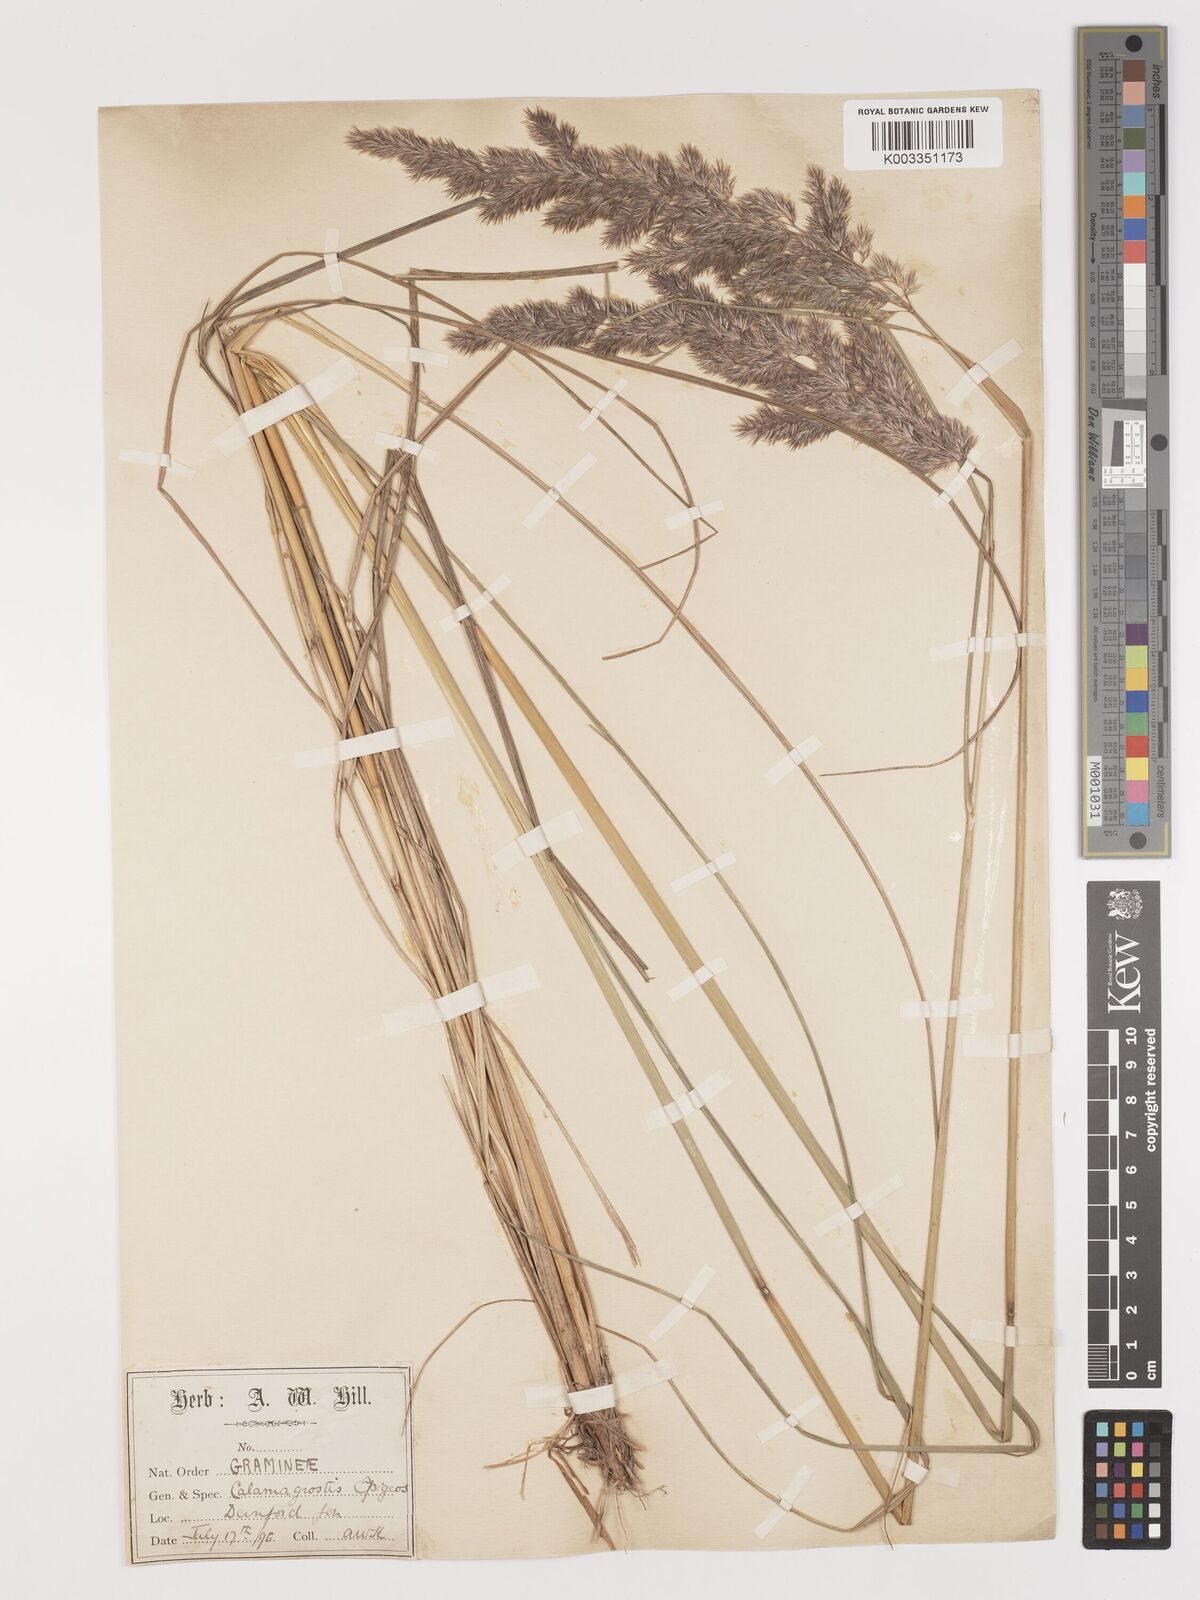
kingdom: Plantae
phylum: Tracheophyta
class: Liliopsida
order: Poales
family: Poaceae
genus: Calamagrostis
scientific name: Calamagrostis
